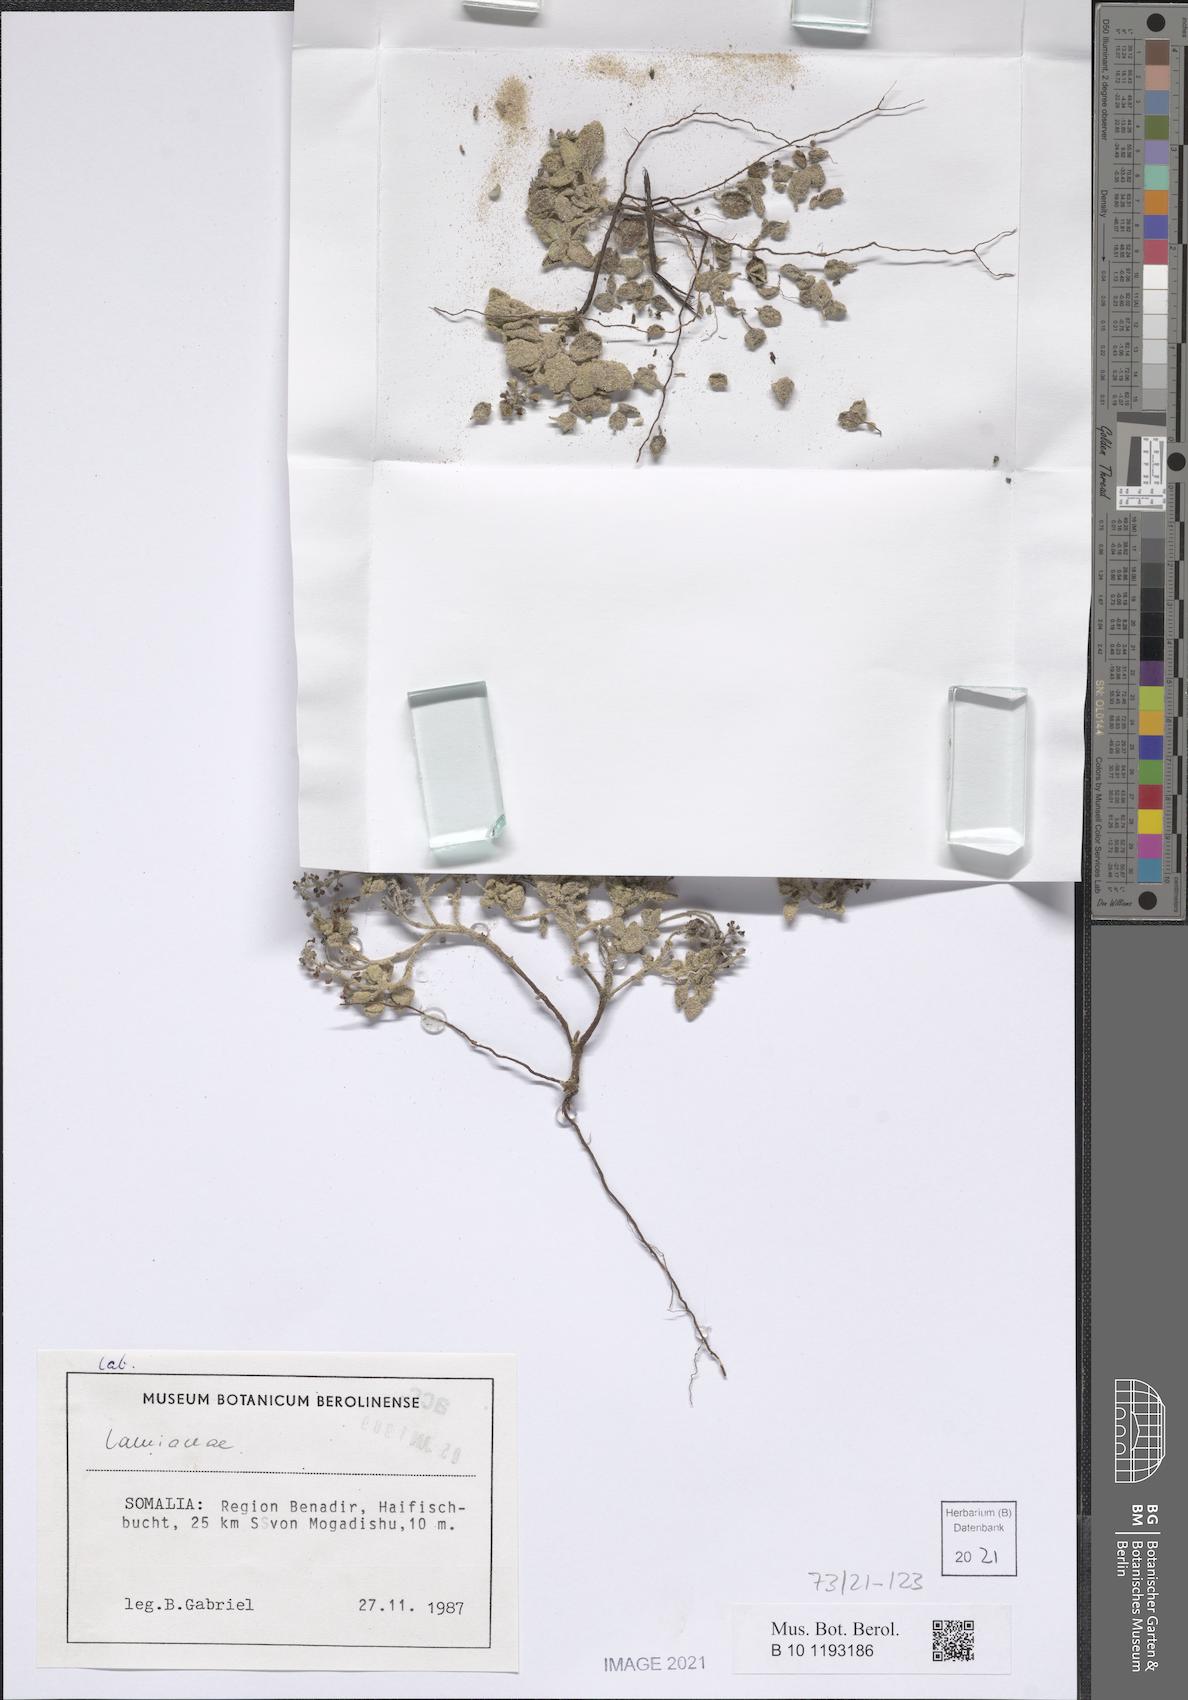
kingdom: Plantae
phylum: Tracheophyta
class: Magnoliopsida
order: Lamiales
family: Lamiaceae
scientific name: Lamiaceae
